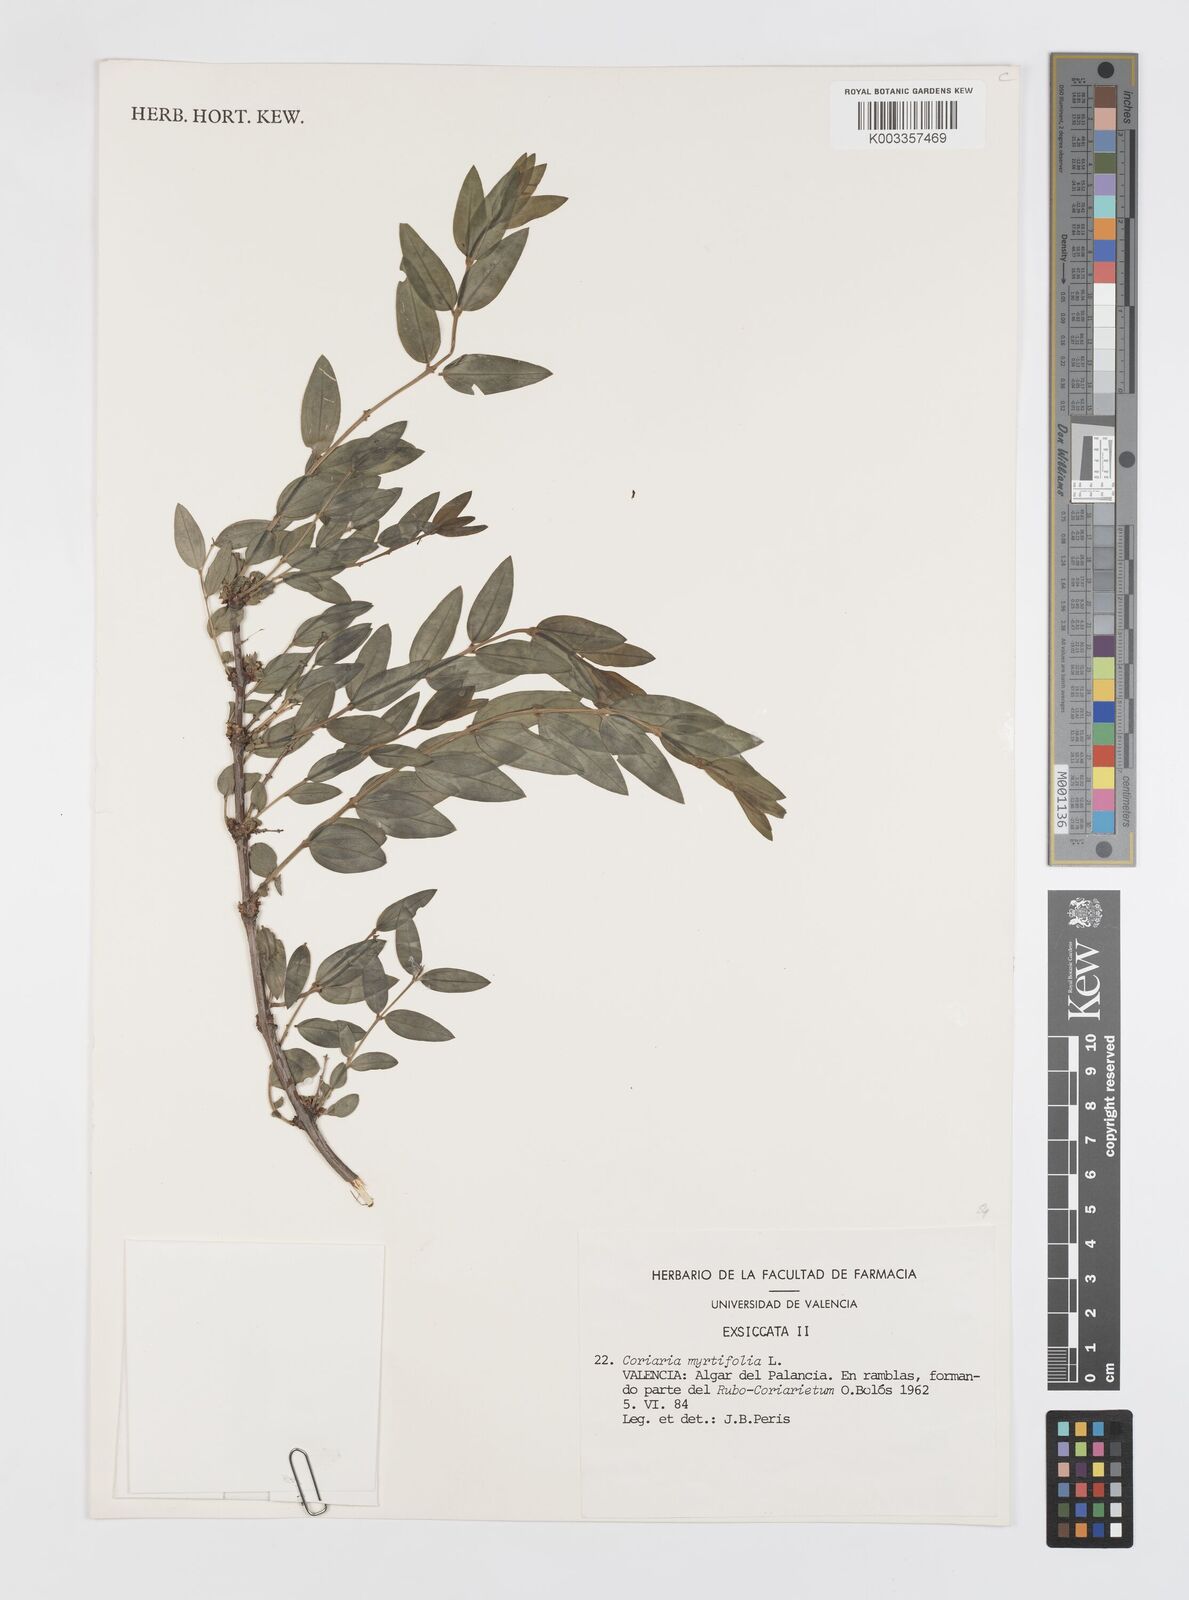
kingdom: Plantae
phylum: Tracheophyta
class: Magnoliopsida
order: Cucurbitales
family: Coriariaceae
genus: Coriaria
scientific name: Coriaria myrtifolia
